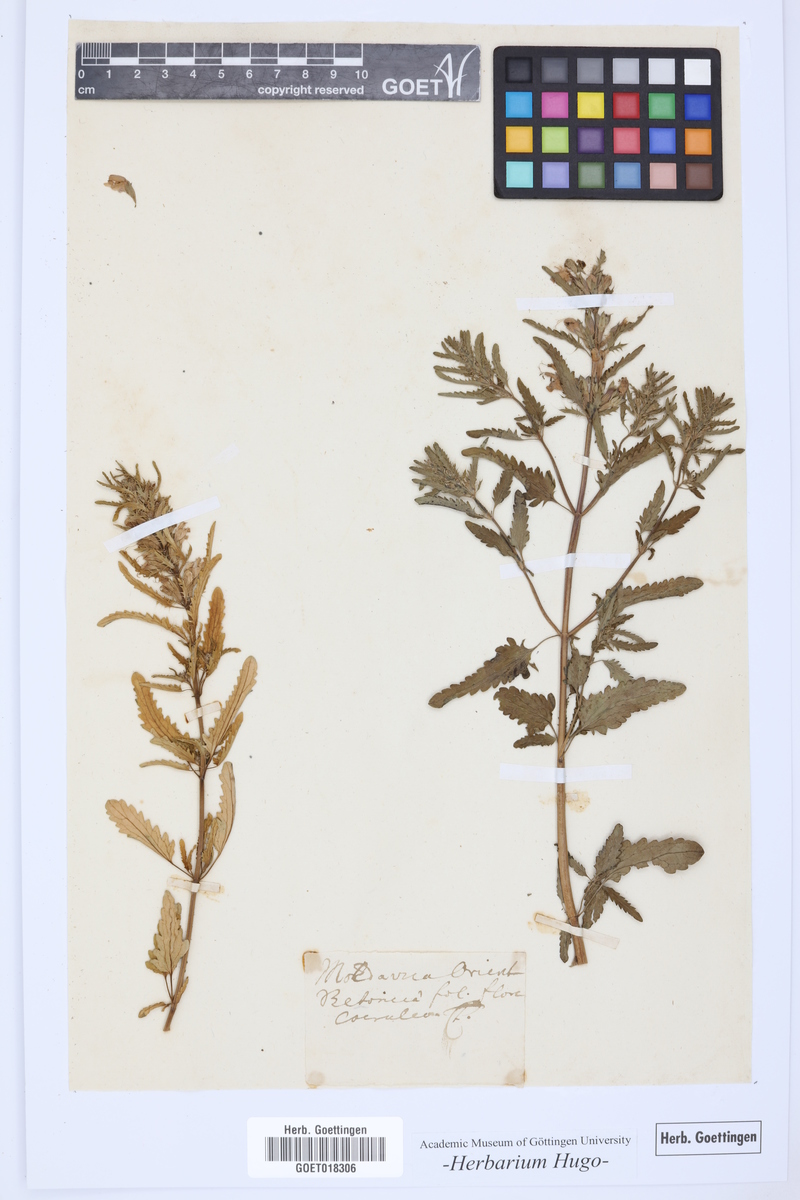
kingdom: Plantae
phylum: Tracheophyta
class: Magnoliopsida
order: Lamiales
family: Lamiaceae
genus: Dracocephalum
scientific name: Dracocephalum
